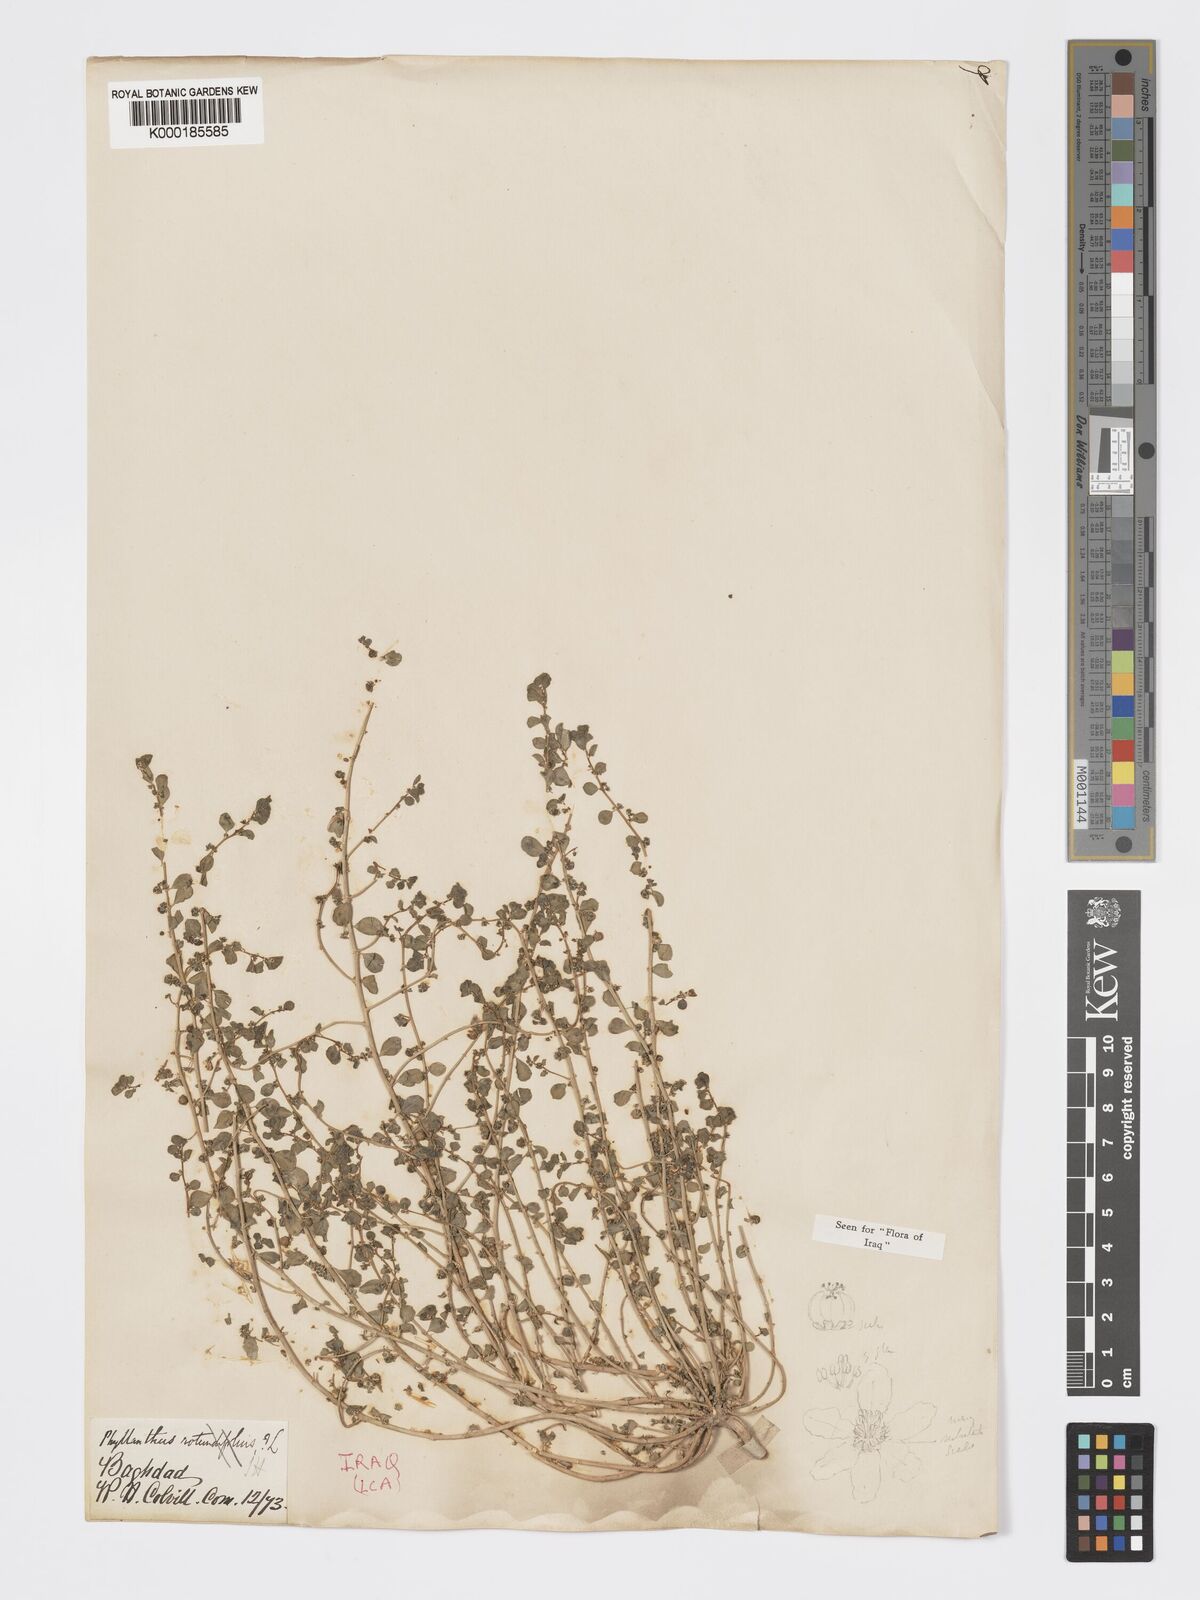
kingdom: Plantae
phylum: Tracheophyta
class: Magnoliopsida
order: Malpighiales
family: Phyllanthaceae
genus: Andrachne
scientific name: Andrachne telephioides
